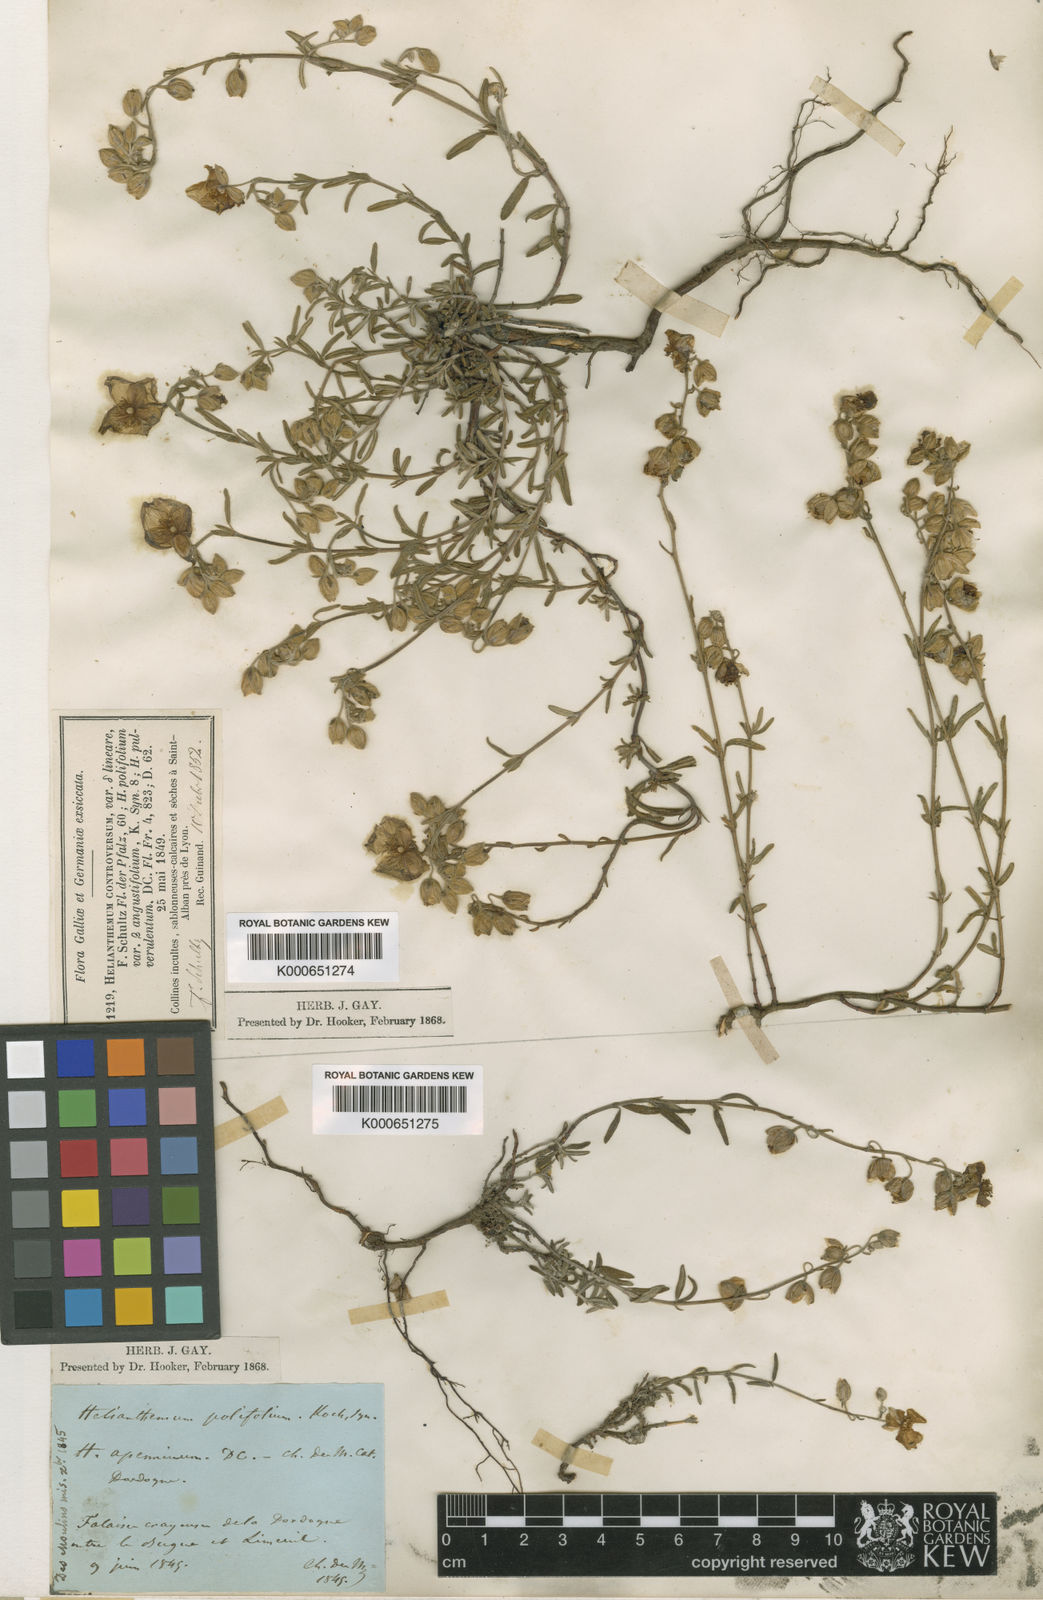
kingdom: Plantae
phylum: Tracheophyta
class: Magnoliopsida
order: Malvales
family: Cistaceae
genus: Helianthemum
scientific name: Helianthemum apenninum
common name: White rock-rose
